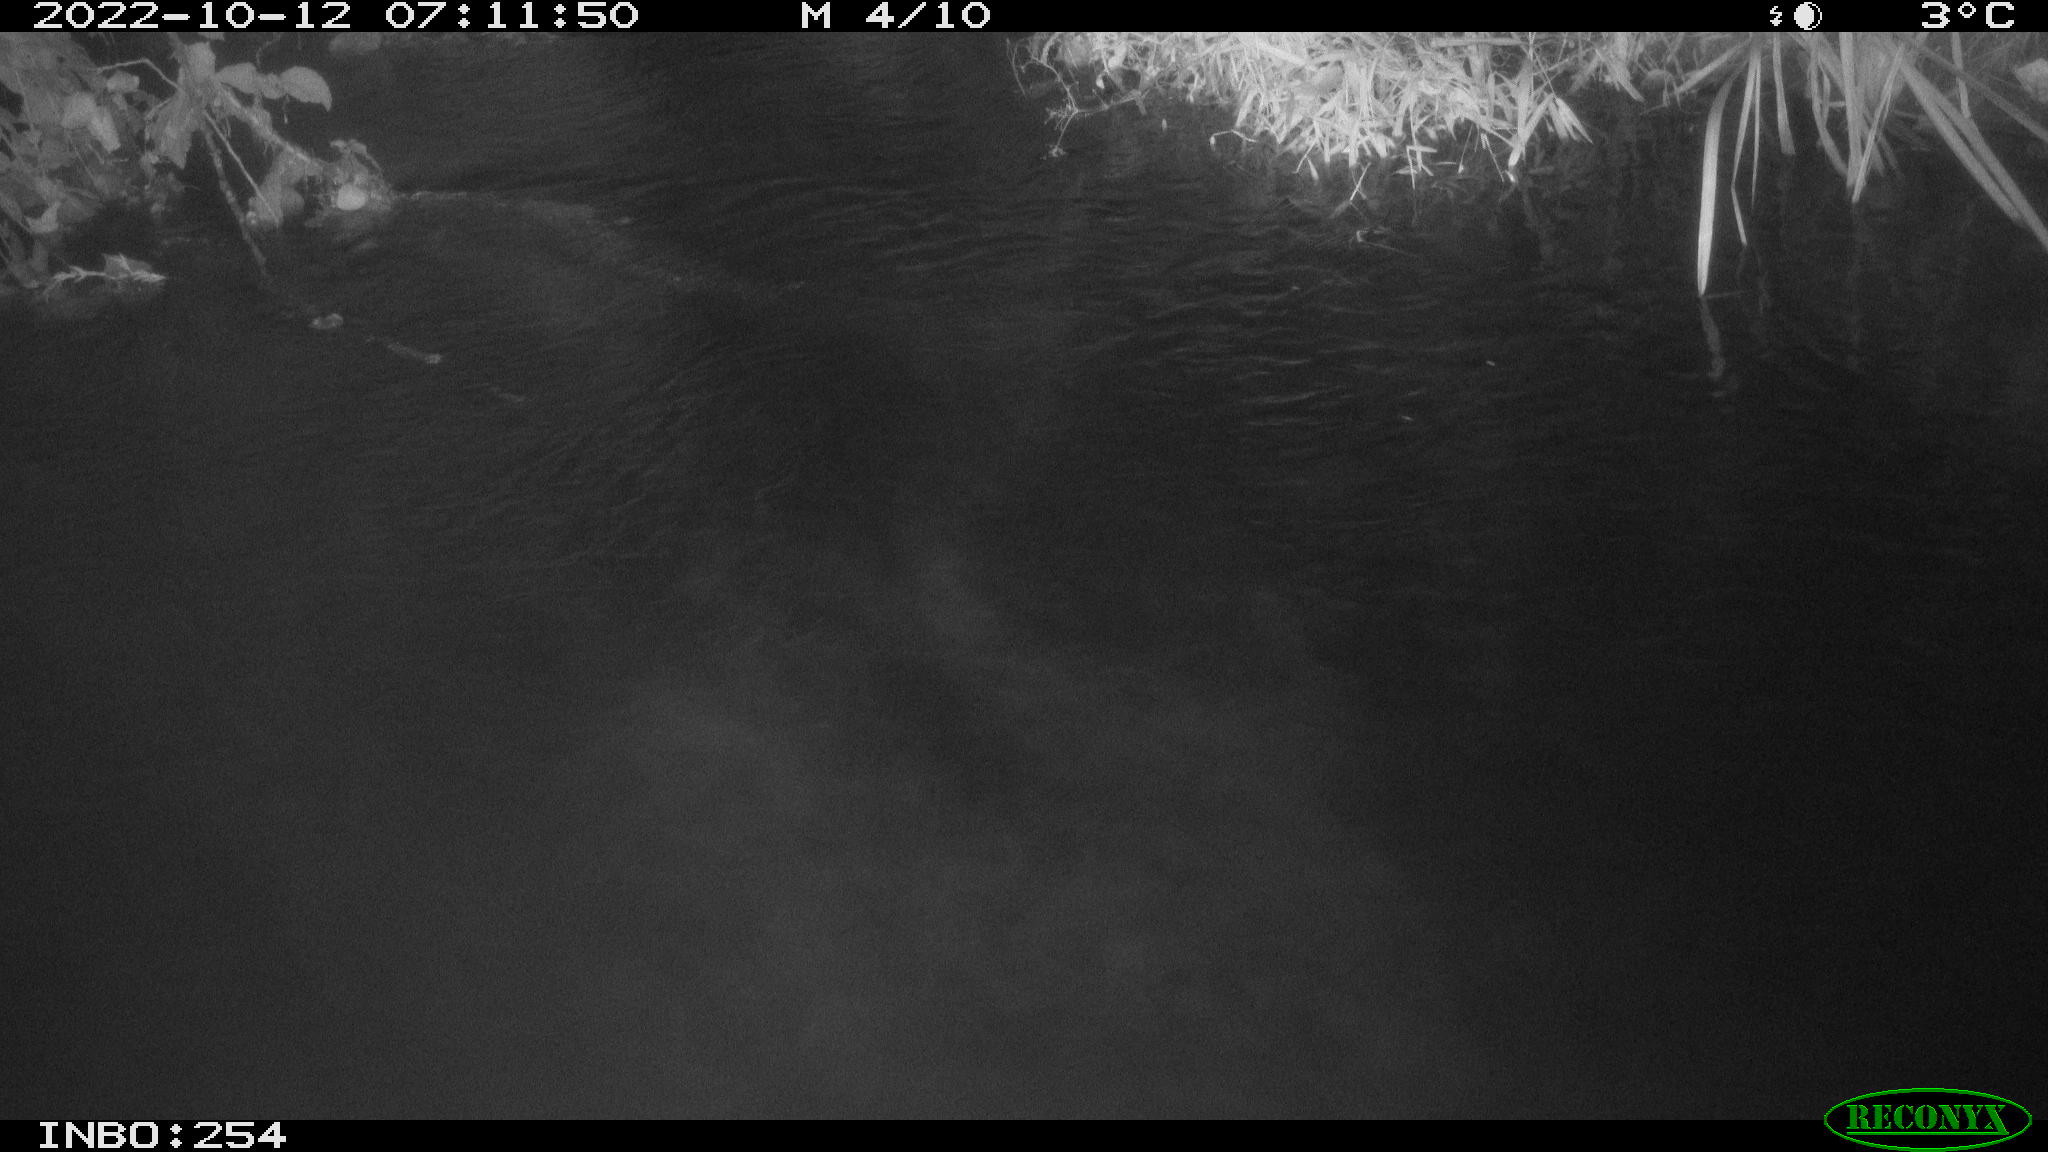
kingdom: Animalia
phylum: Chordata
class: Mammalia
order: Rodentia
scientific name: Rodentia
